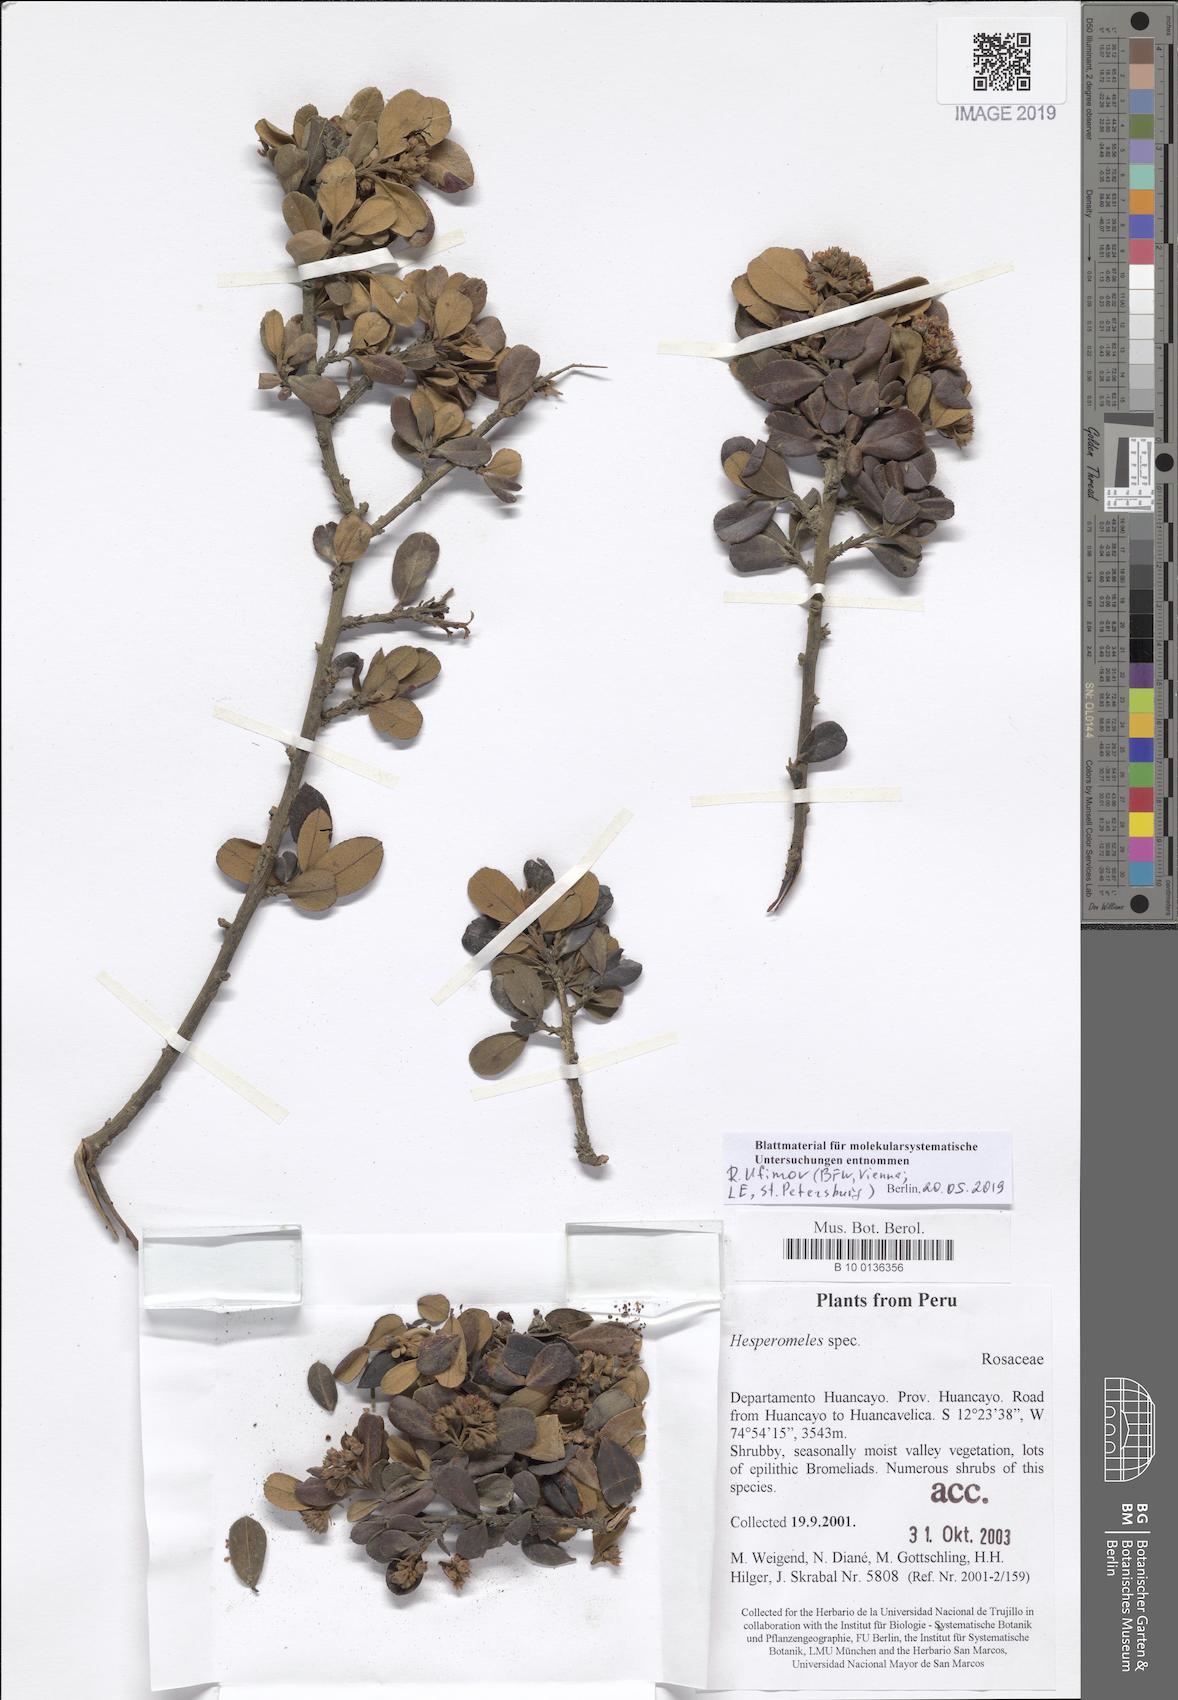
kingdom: Plantae
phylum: Tracheophyta
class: Magnoliopsida
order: Rosales
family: Rosaceae
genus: Hesperomeles
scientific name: Hesperomeles
